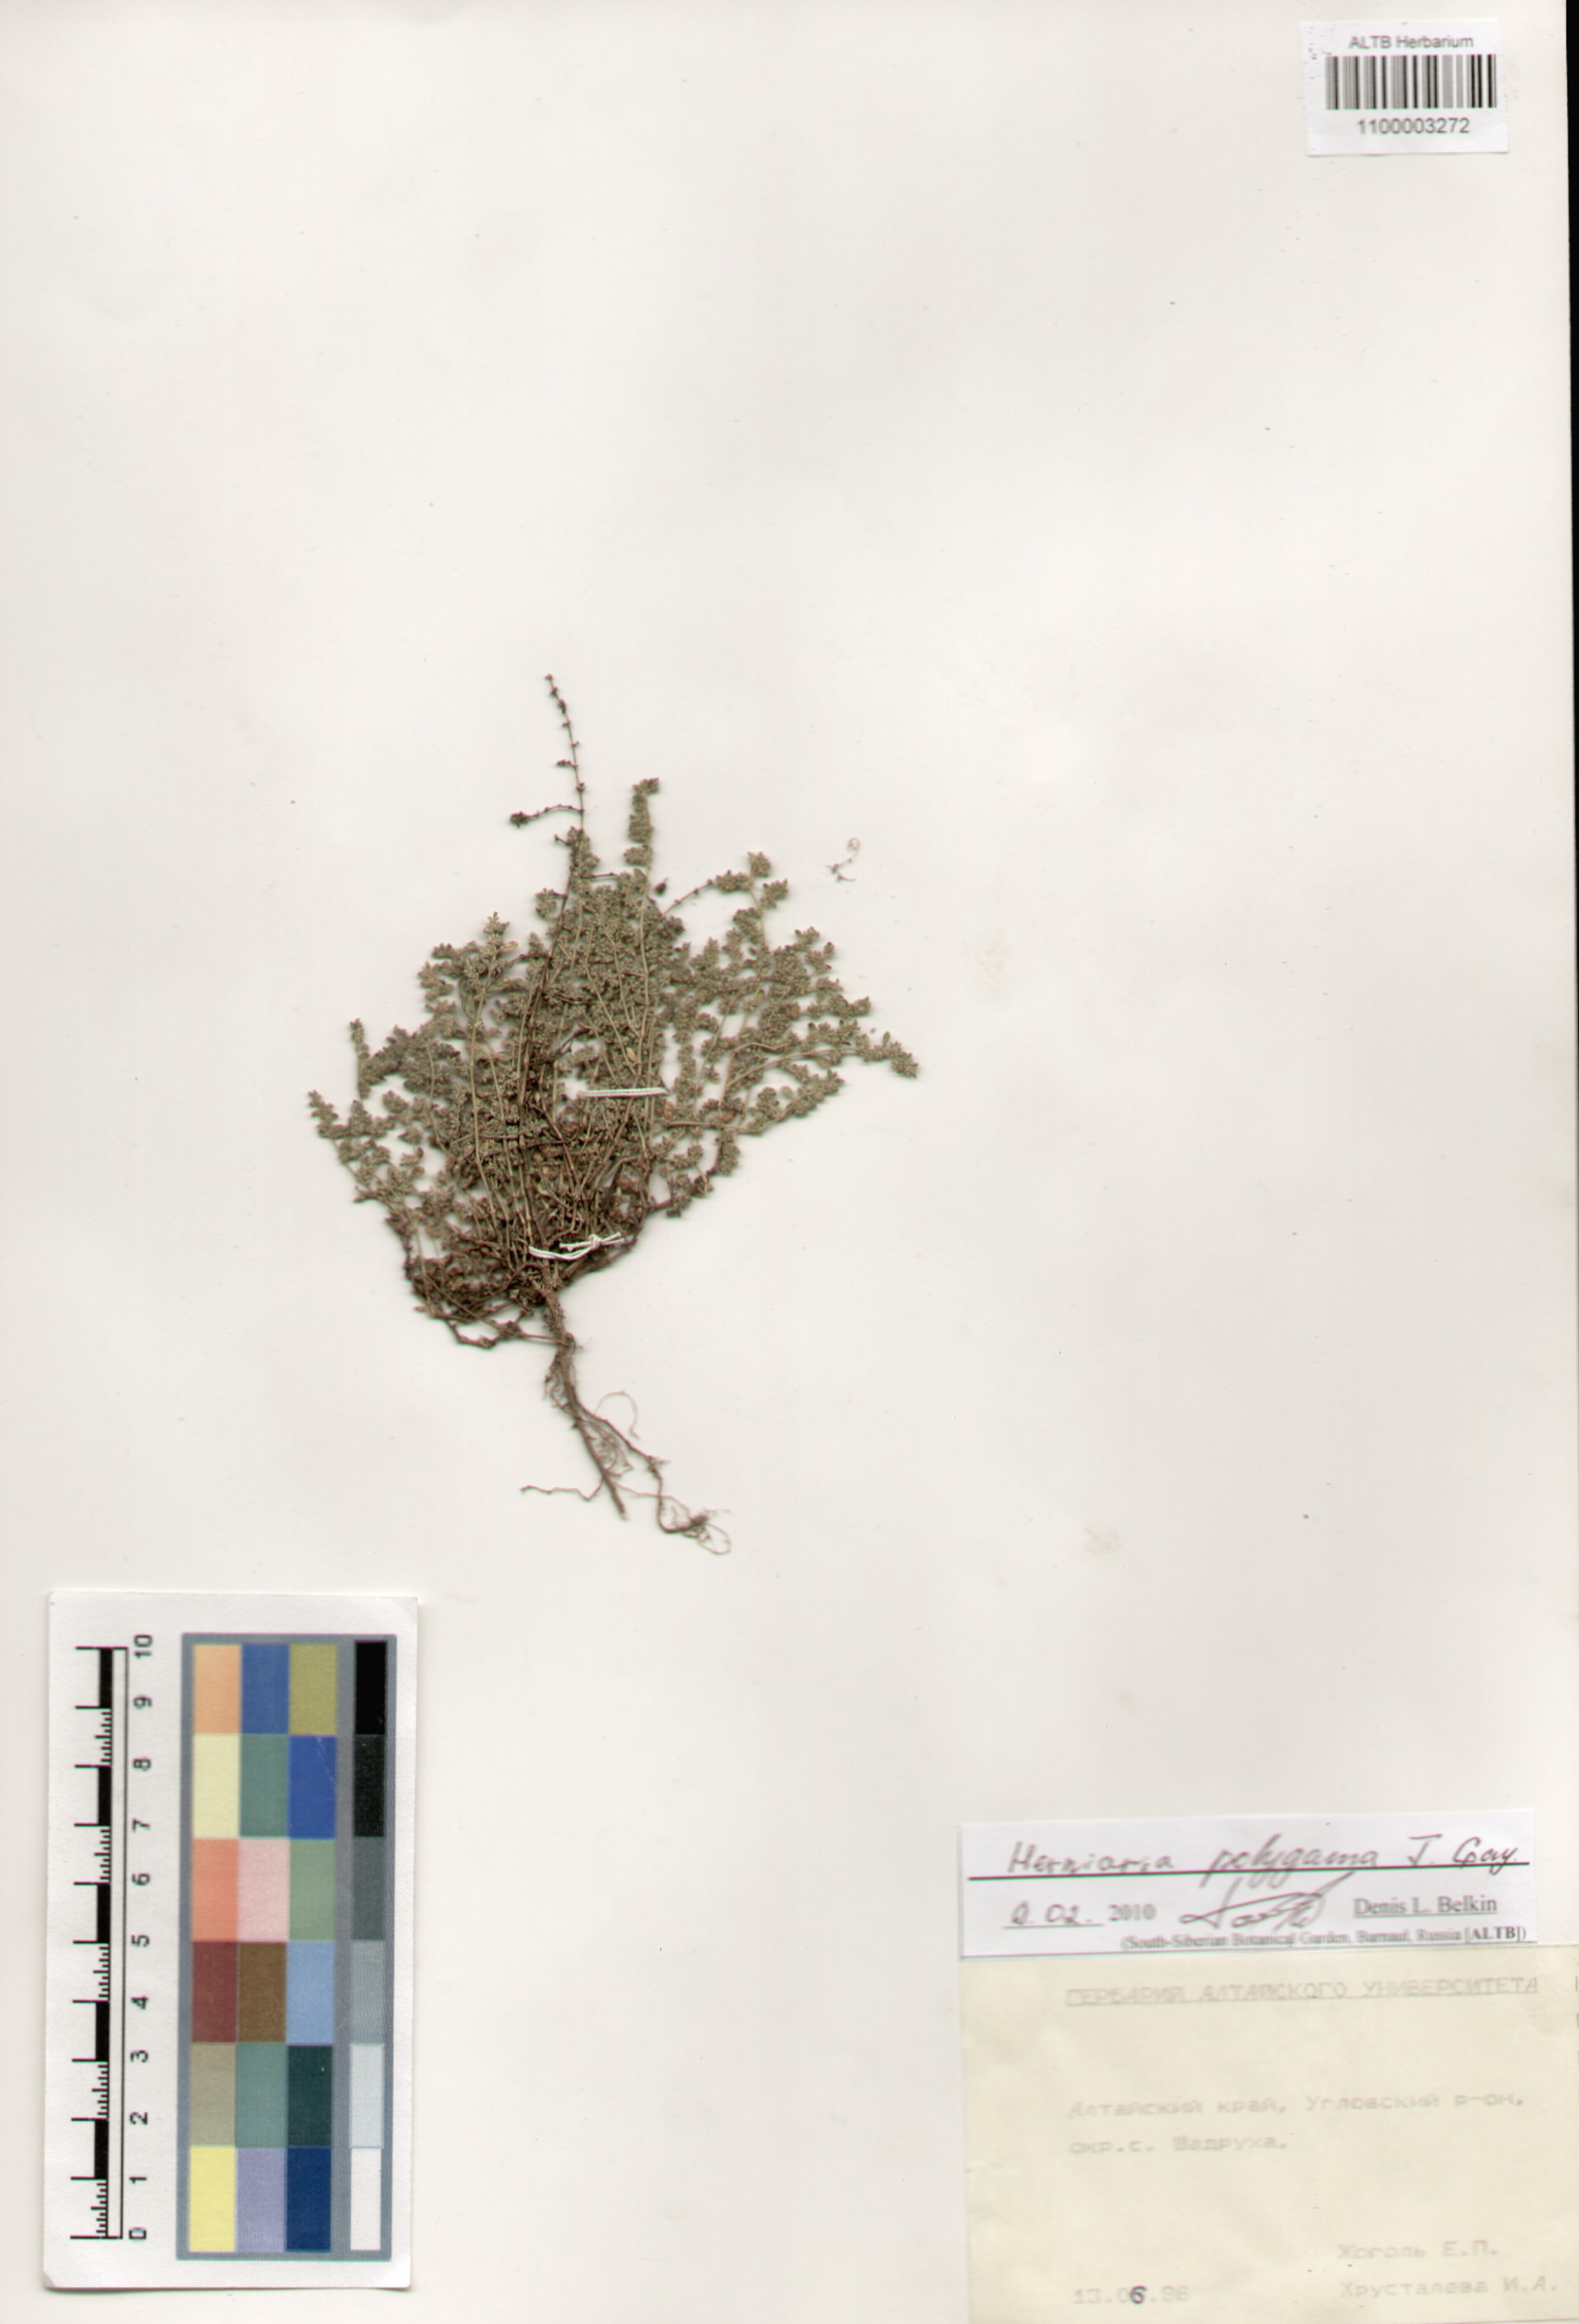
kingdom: Plantae
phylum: Tracheophyta
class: Magnoliopsida
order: Caryophyllales
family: Caryophyllaceae
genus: Herniaria
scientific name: Herniaria polygama
